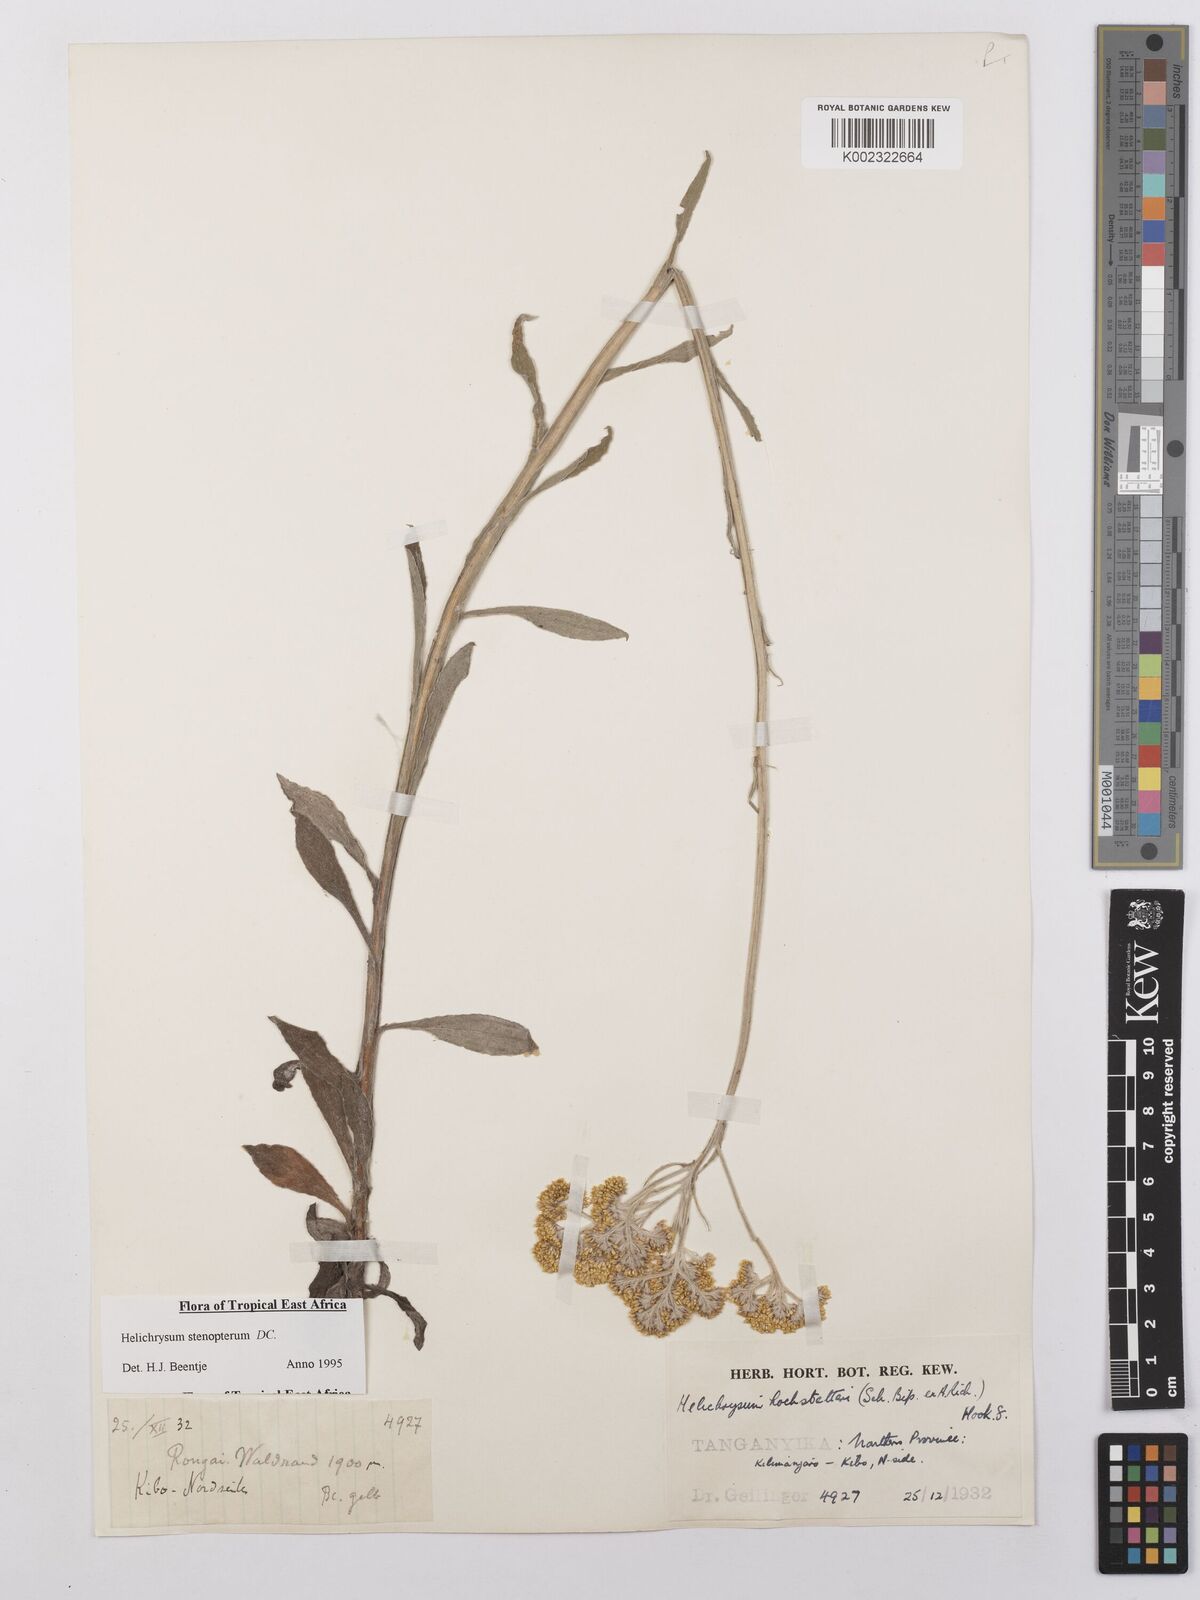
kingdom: Plantae
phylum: Tracheophyta
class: Magnoliopsida
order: Asterales
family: Asteraceae
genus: Helichrysum
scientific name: Helichrysum stenopterum
